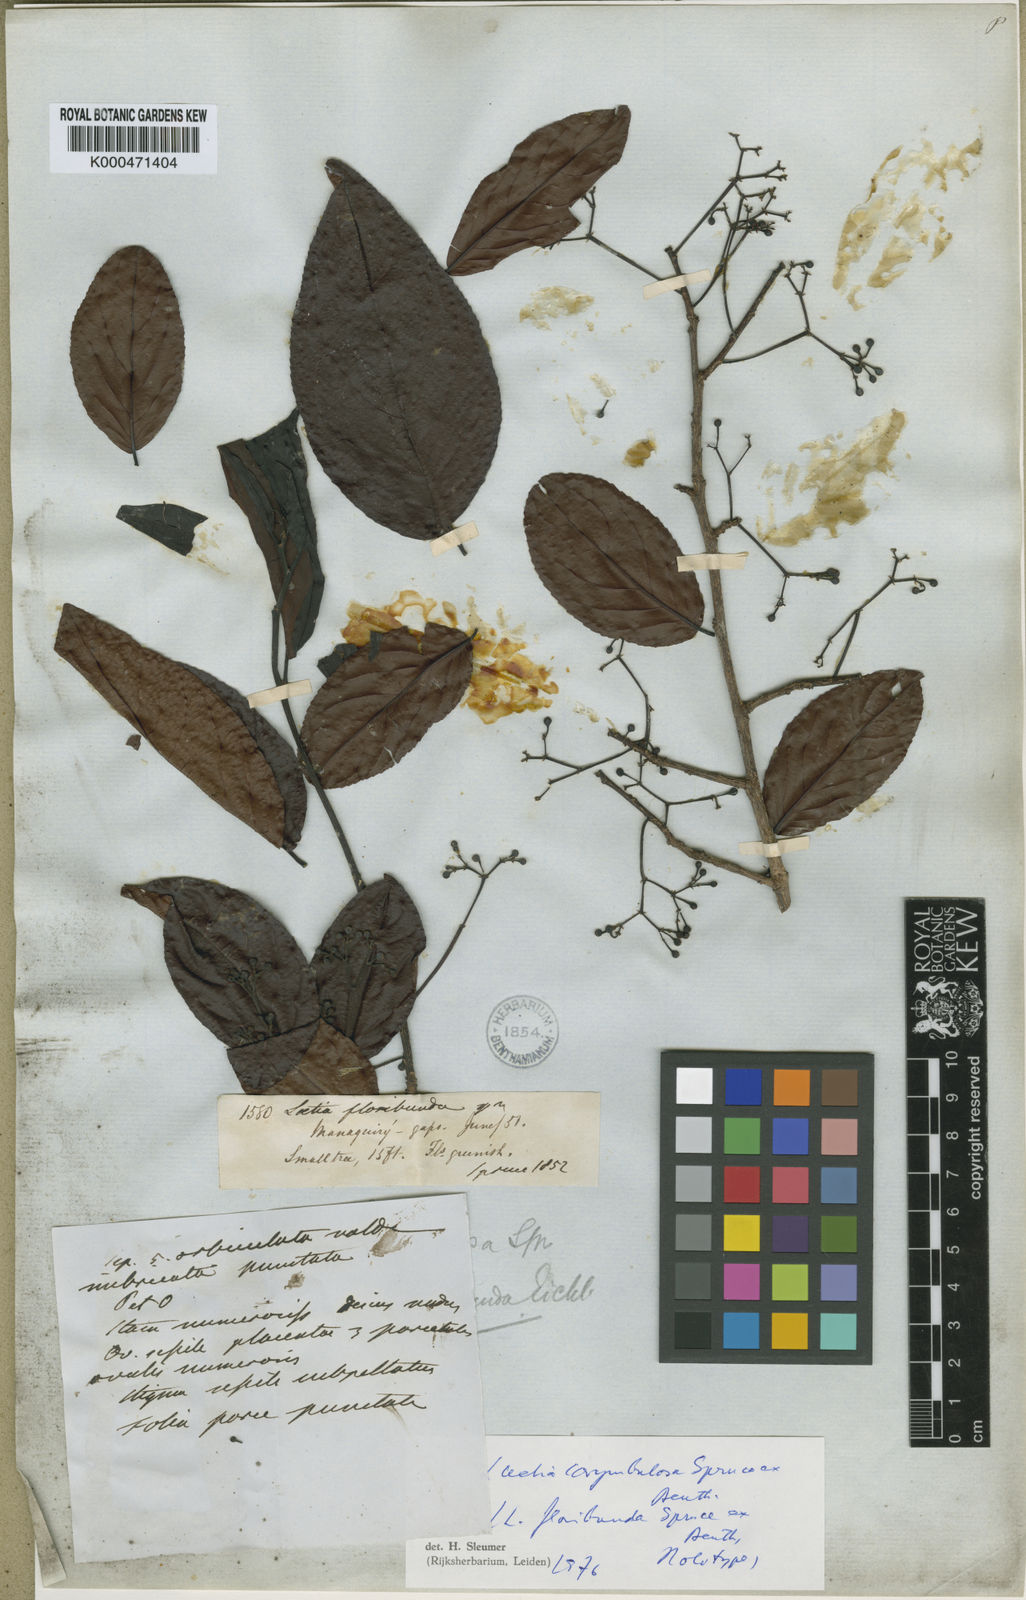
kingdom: Plantae
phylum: Tracheophyta
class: Magnoliopsida
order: Malpighiales
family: Salicaceae
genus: Casearia
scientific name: Casearia corymbulosa
